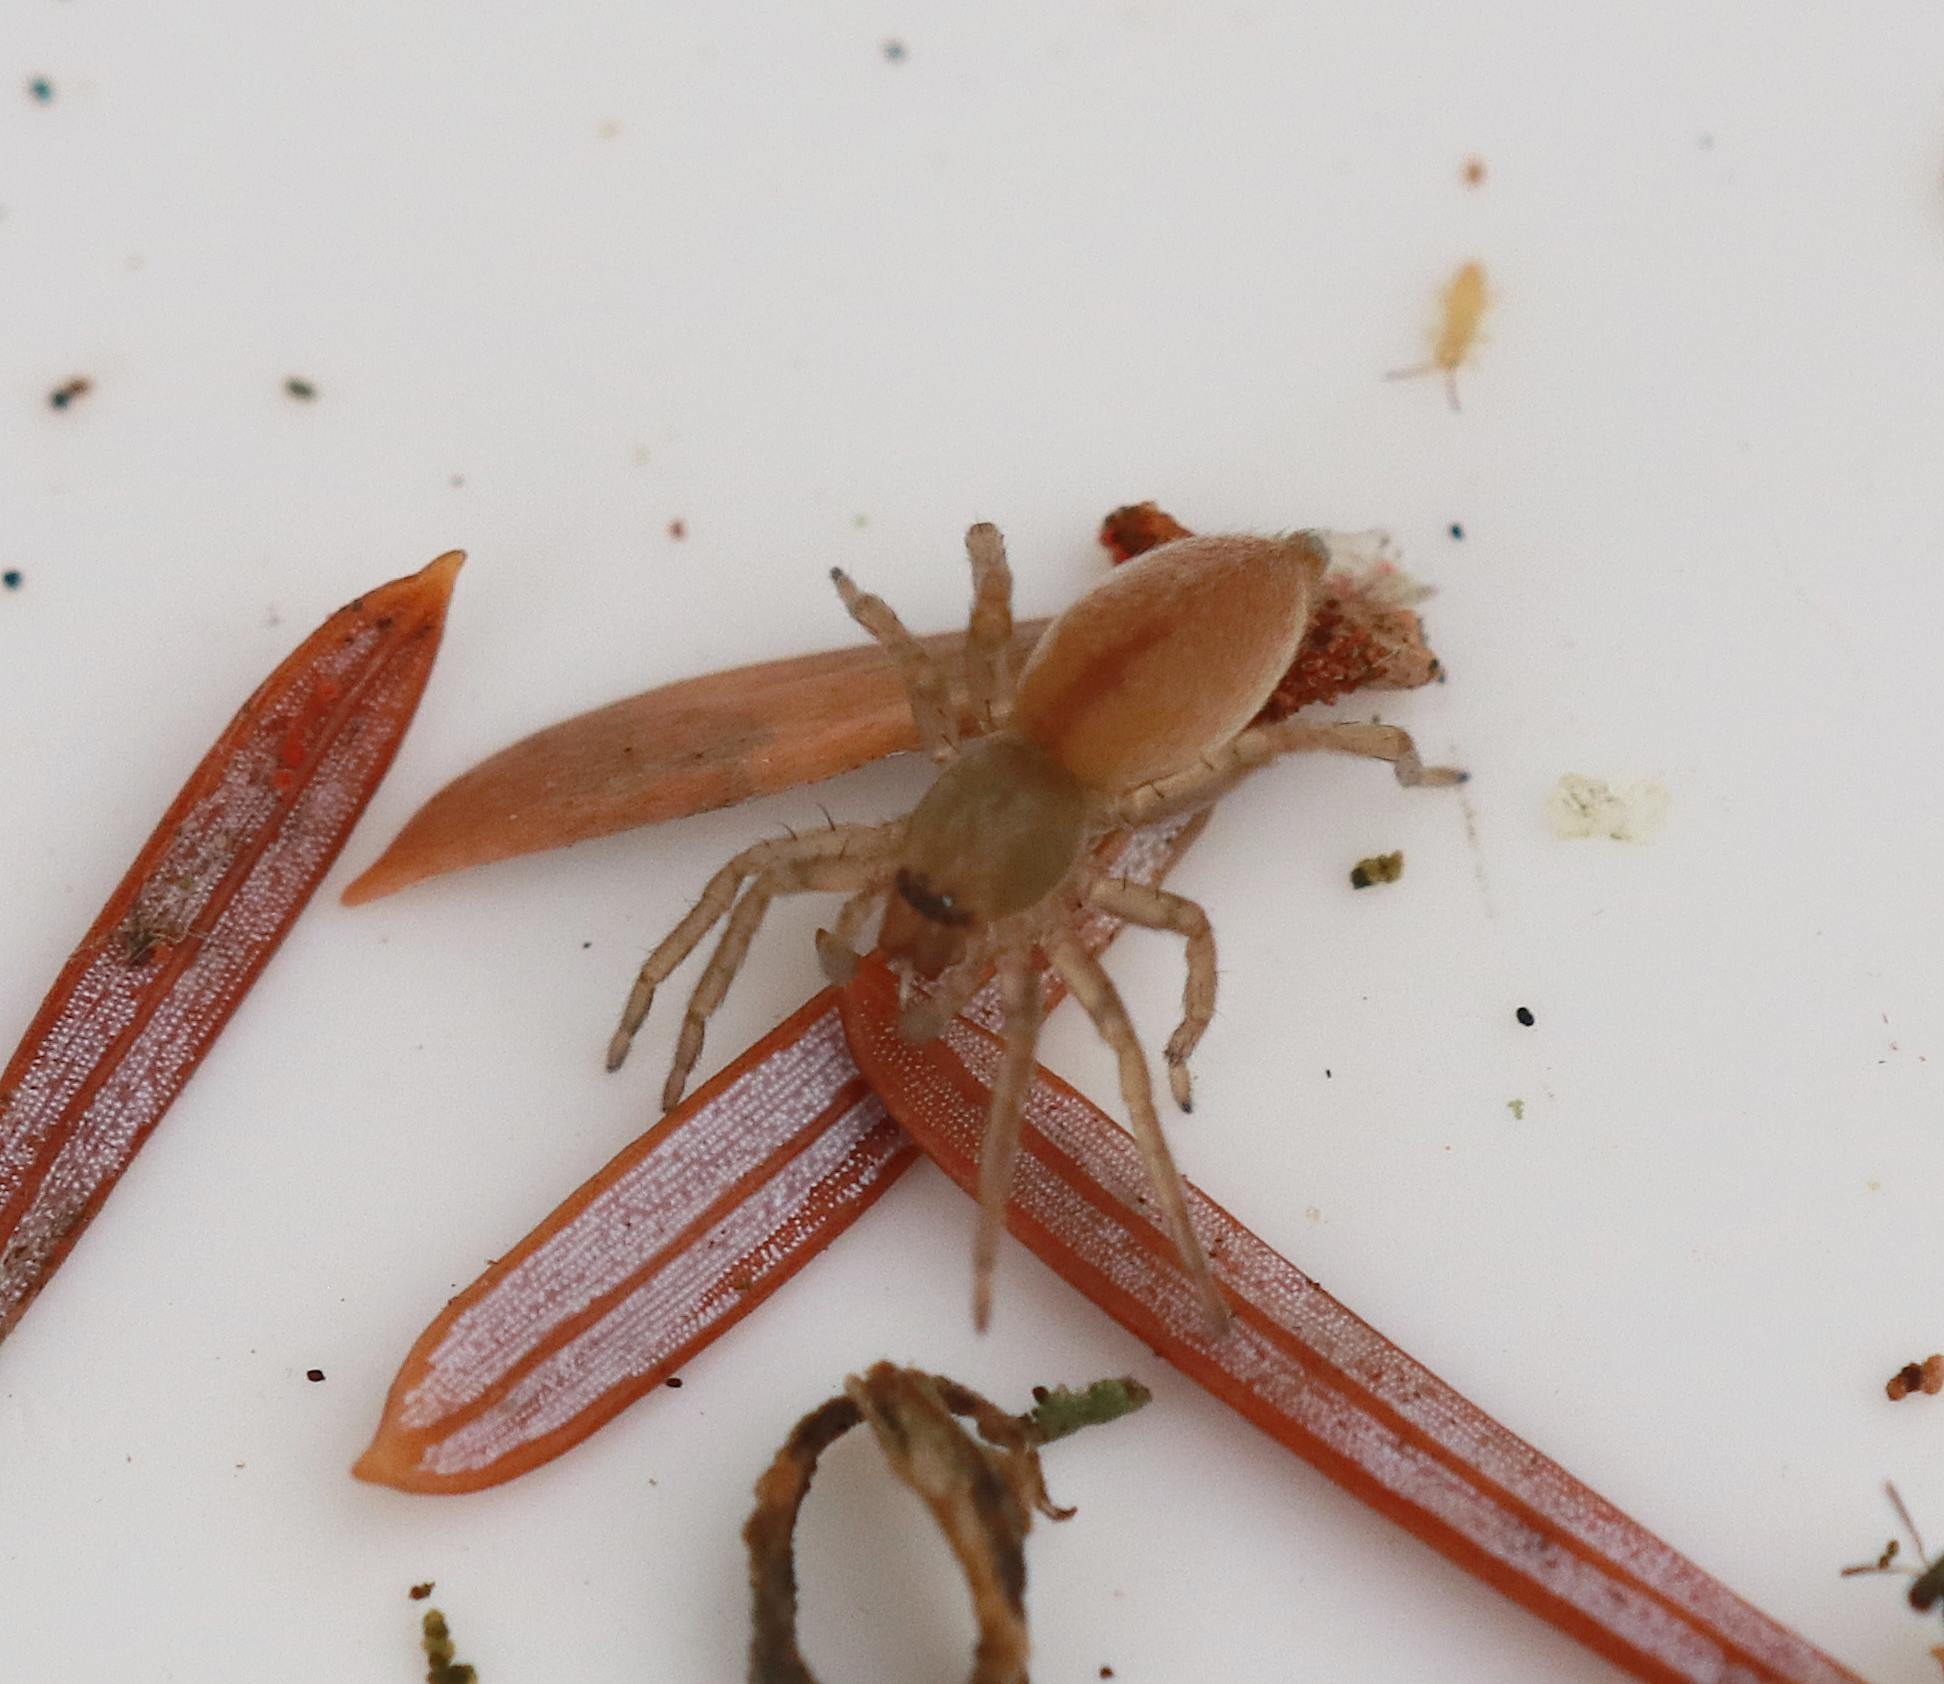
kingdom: Animalia
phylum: Arthropoda
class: Arachnida
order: Araneae
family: Clubionidae
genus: Clubiona
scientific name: Clubiona diversa
